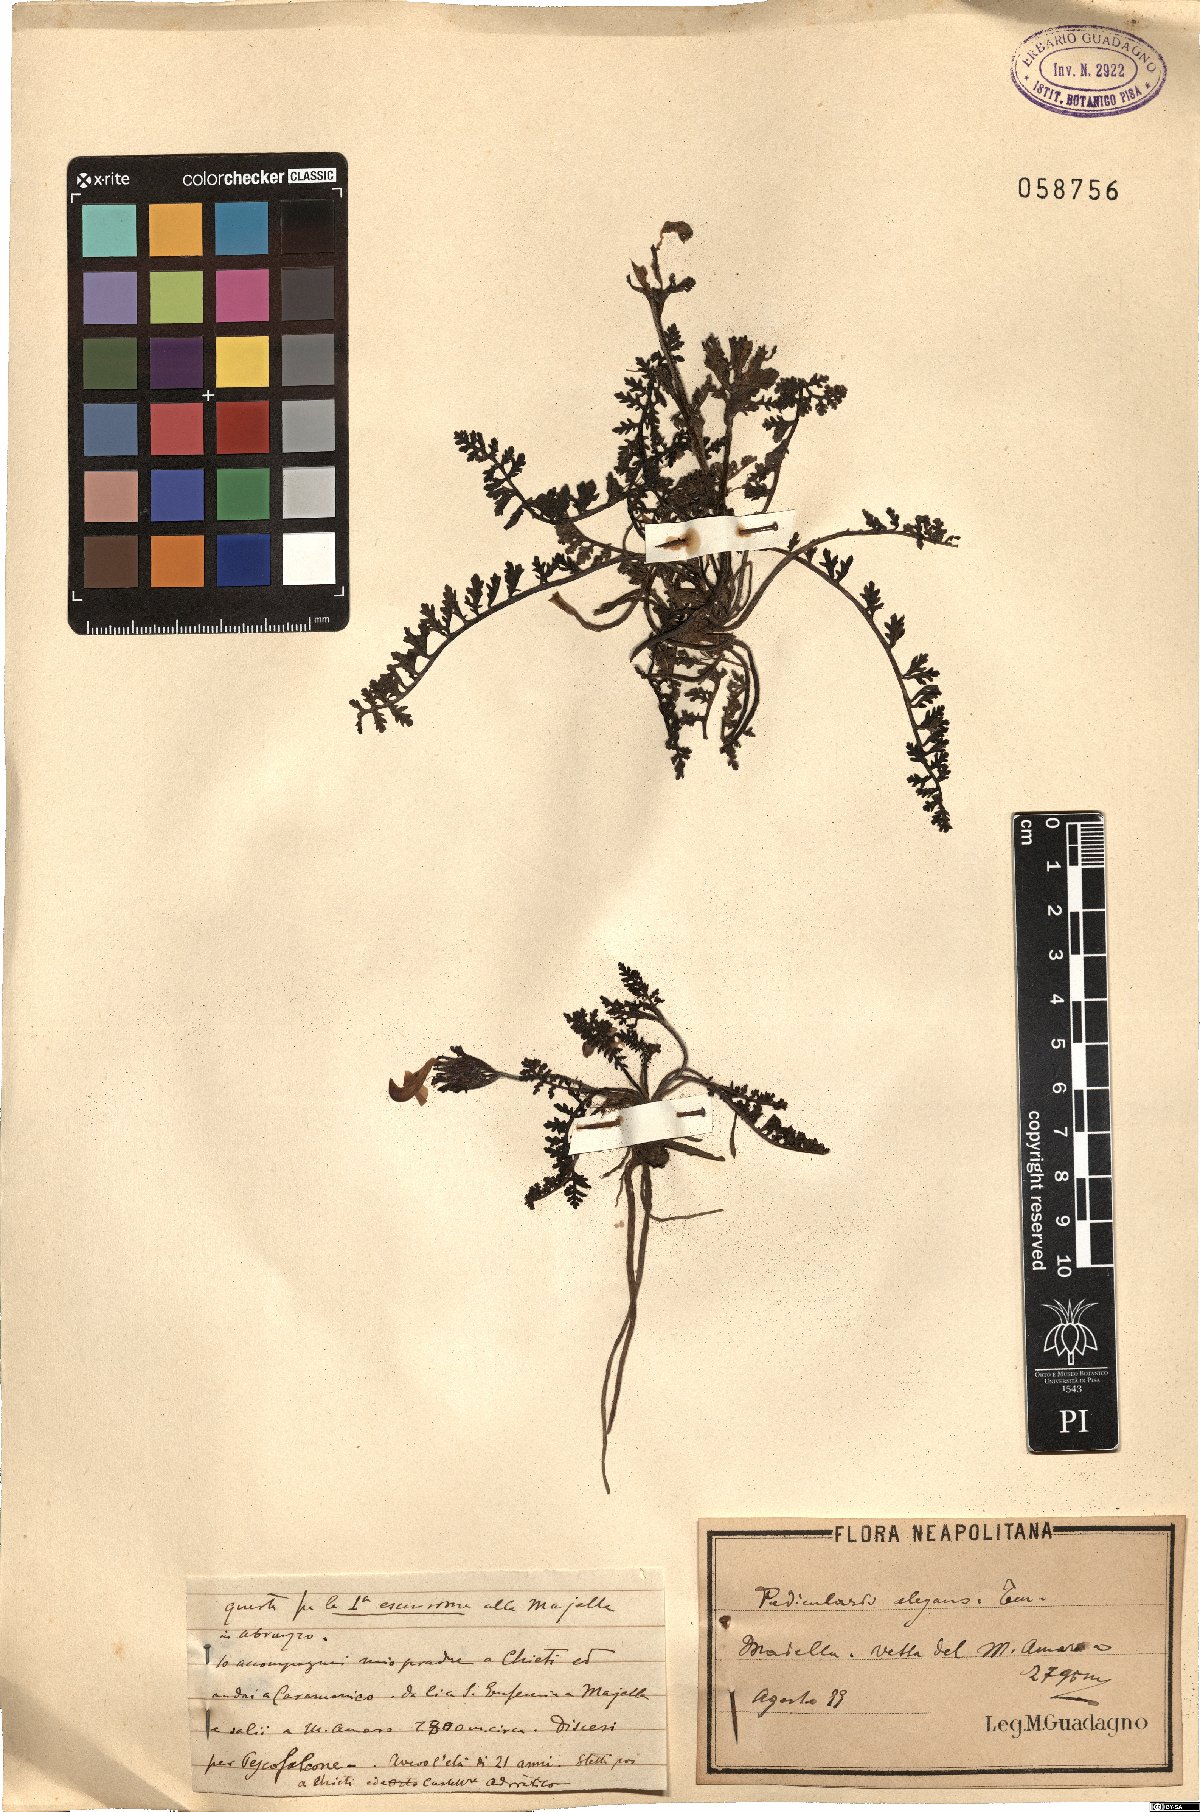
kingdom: Plantae
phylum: Tracheophyta
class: Magnoliopsida
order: Lamiales
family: Orobanchaceae
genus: Pedicularis
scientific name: Pedicularis elegans
